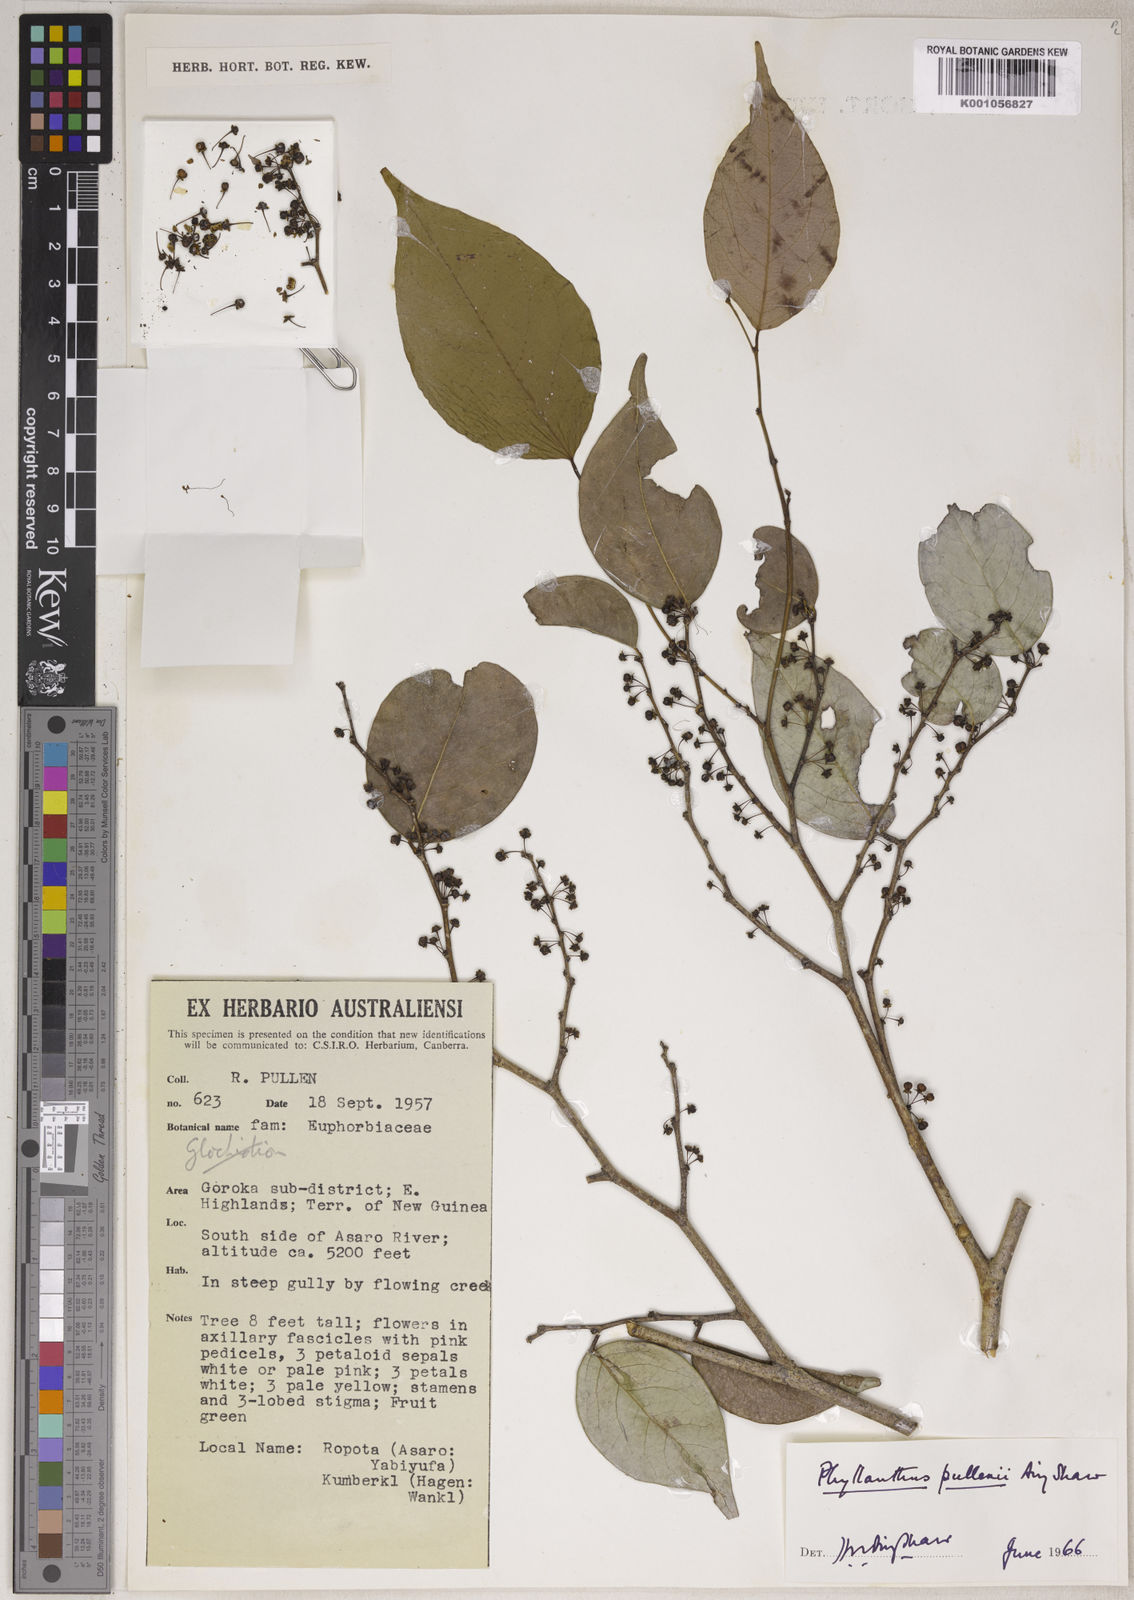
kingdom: Plantae
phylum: Tracheophyta
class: Magnoliopsida
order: Malpighiales
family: Phyllanthaceae
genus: Phyllanthus
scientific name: Phyllanthus pullenii
